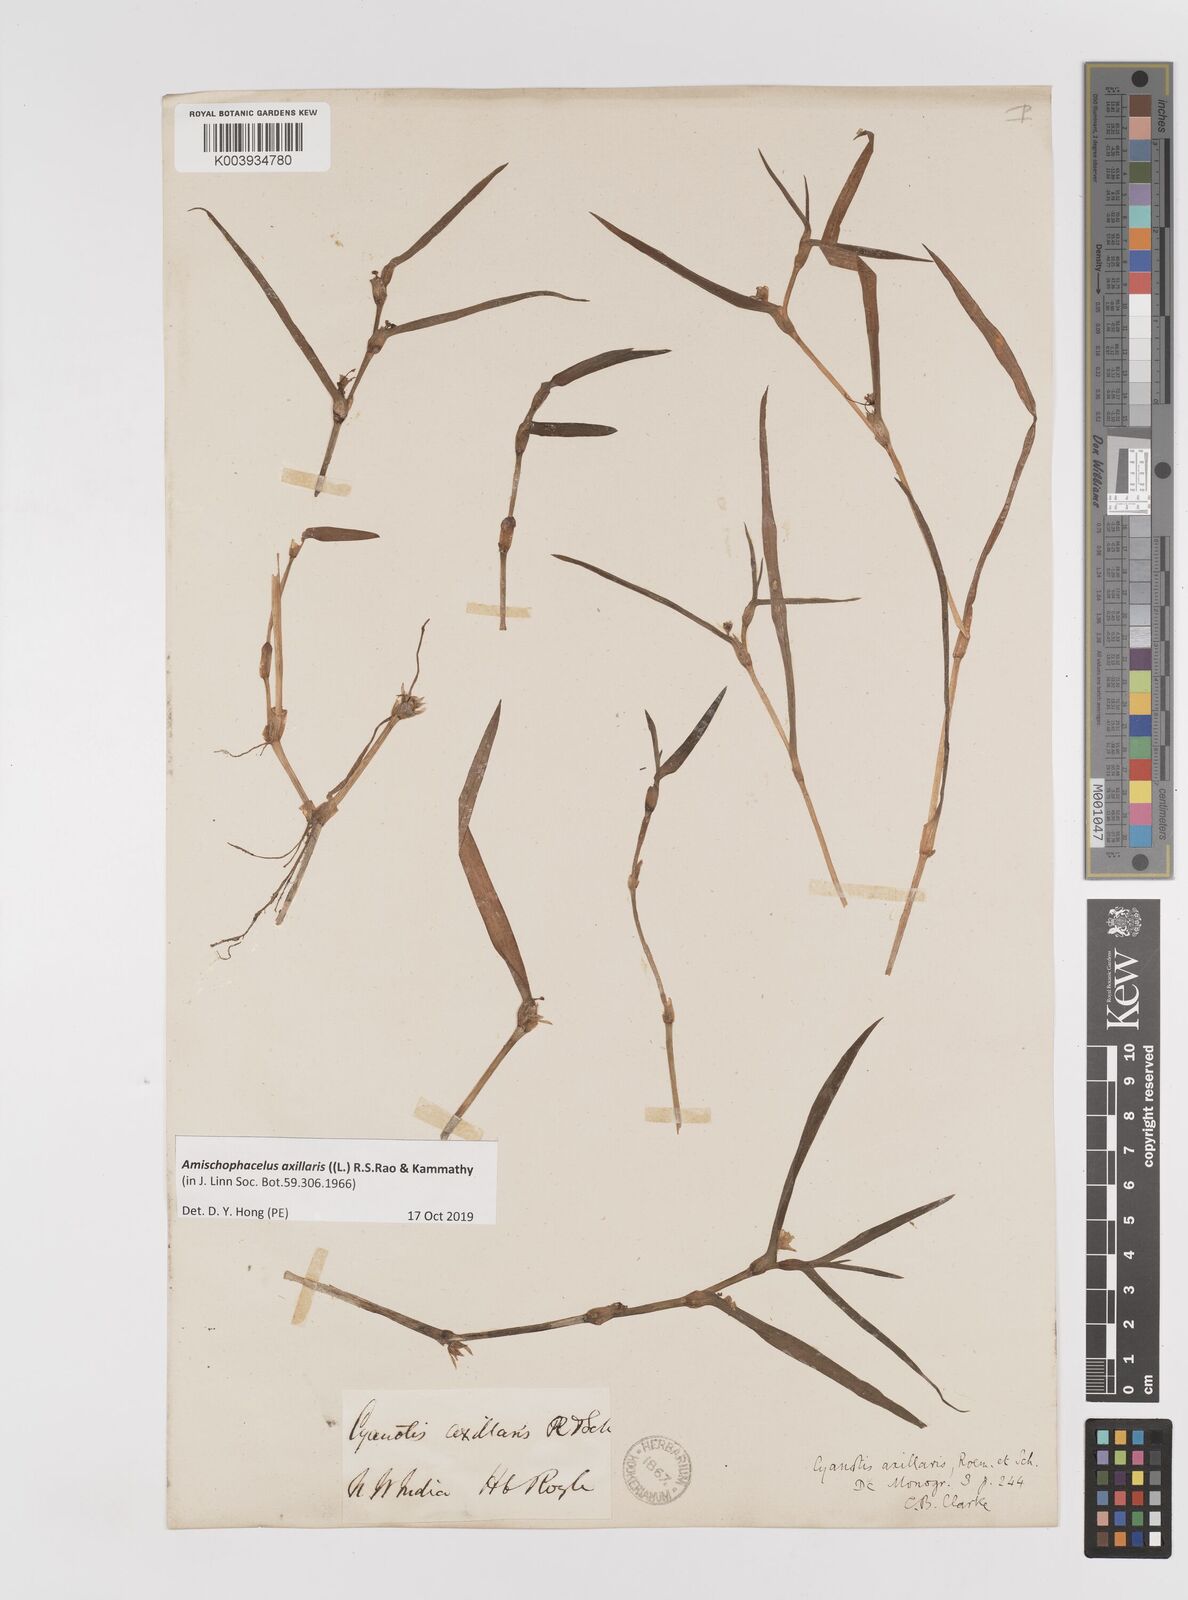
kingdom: Plantae
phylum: Tracheophyta
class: Liliopsida
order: Commelinales
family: Commelinaceae
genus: Cyanotis
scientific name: Cyanotis axillaris
